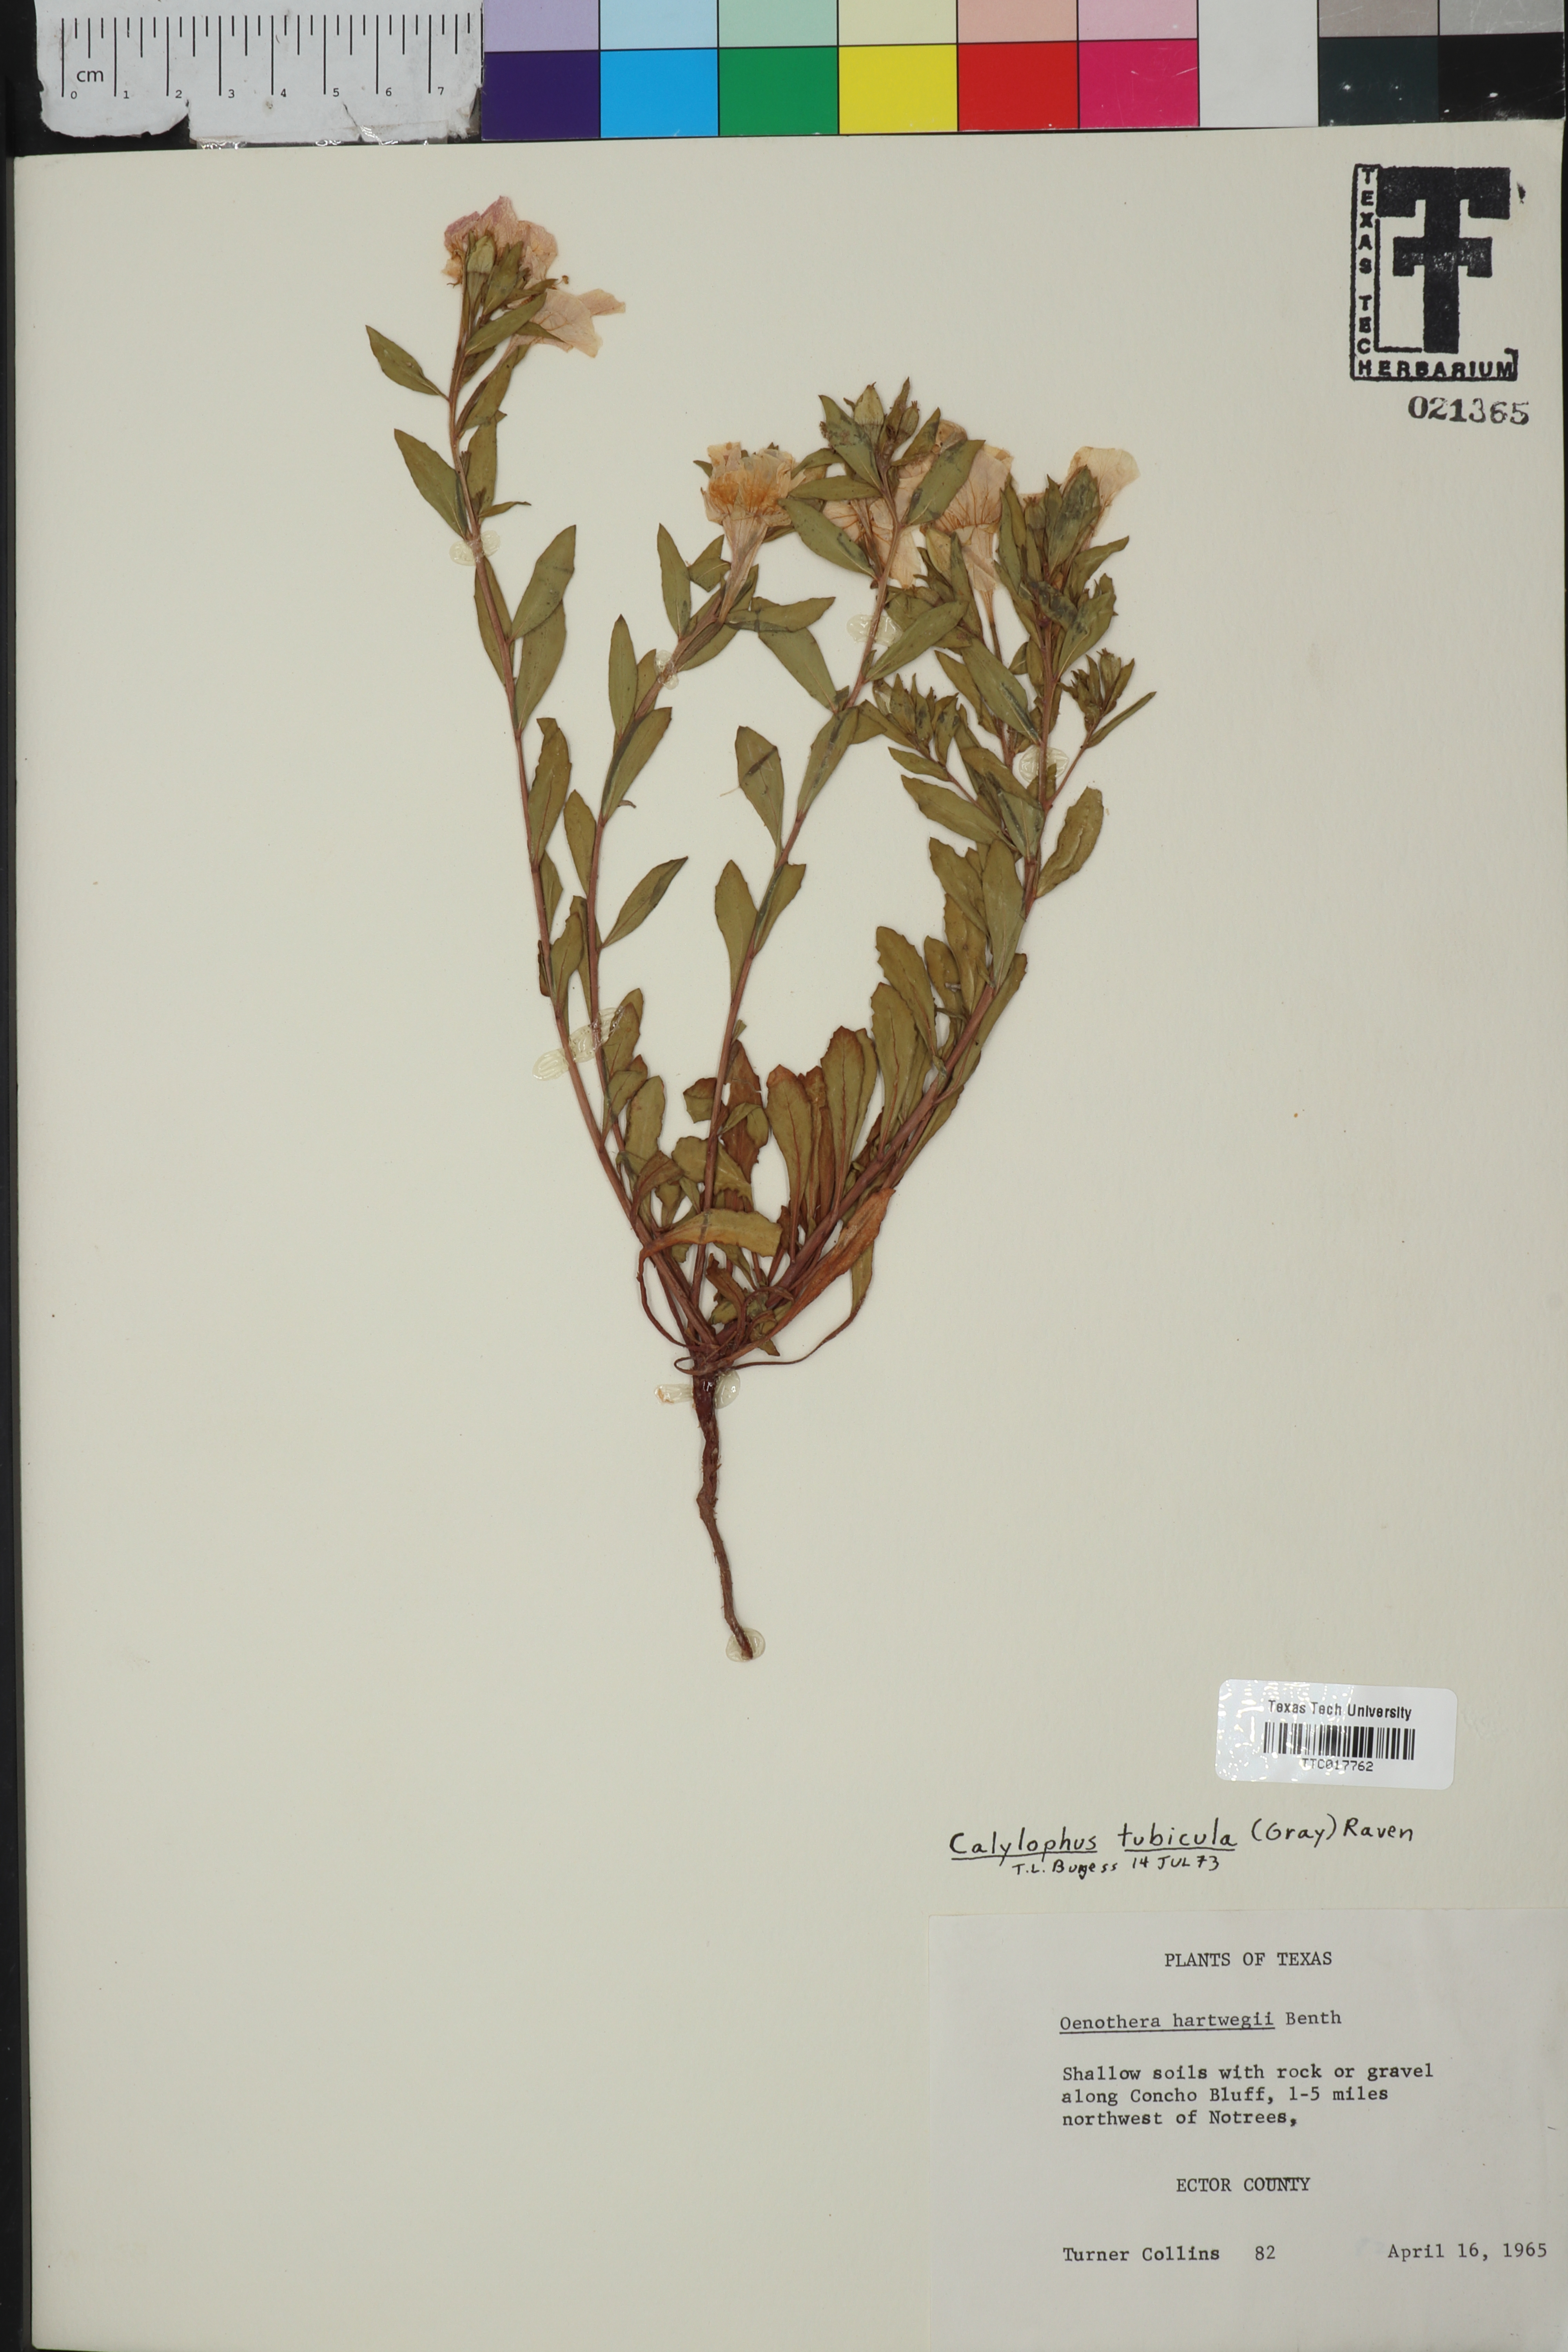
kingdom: Plantae
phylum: Tracheophyta
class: Magnoliopsida
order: Myrtales
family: Onagraceae
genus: Oenothera
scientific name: Oenothera hartwegii
